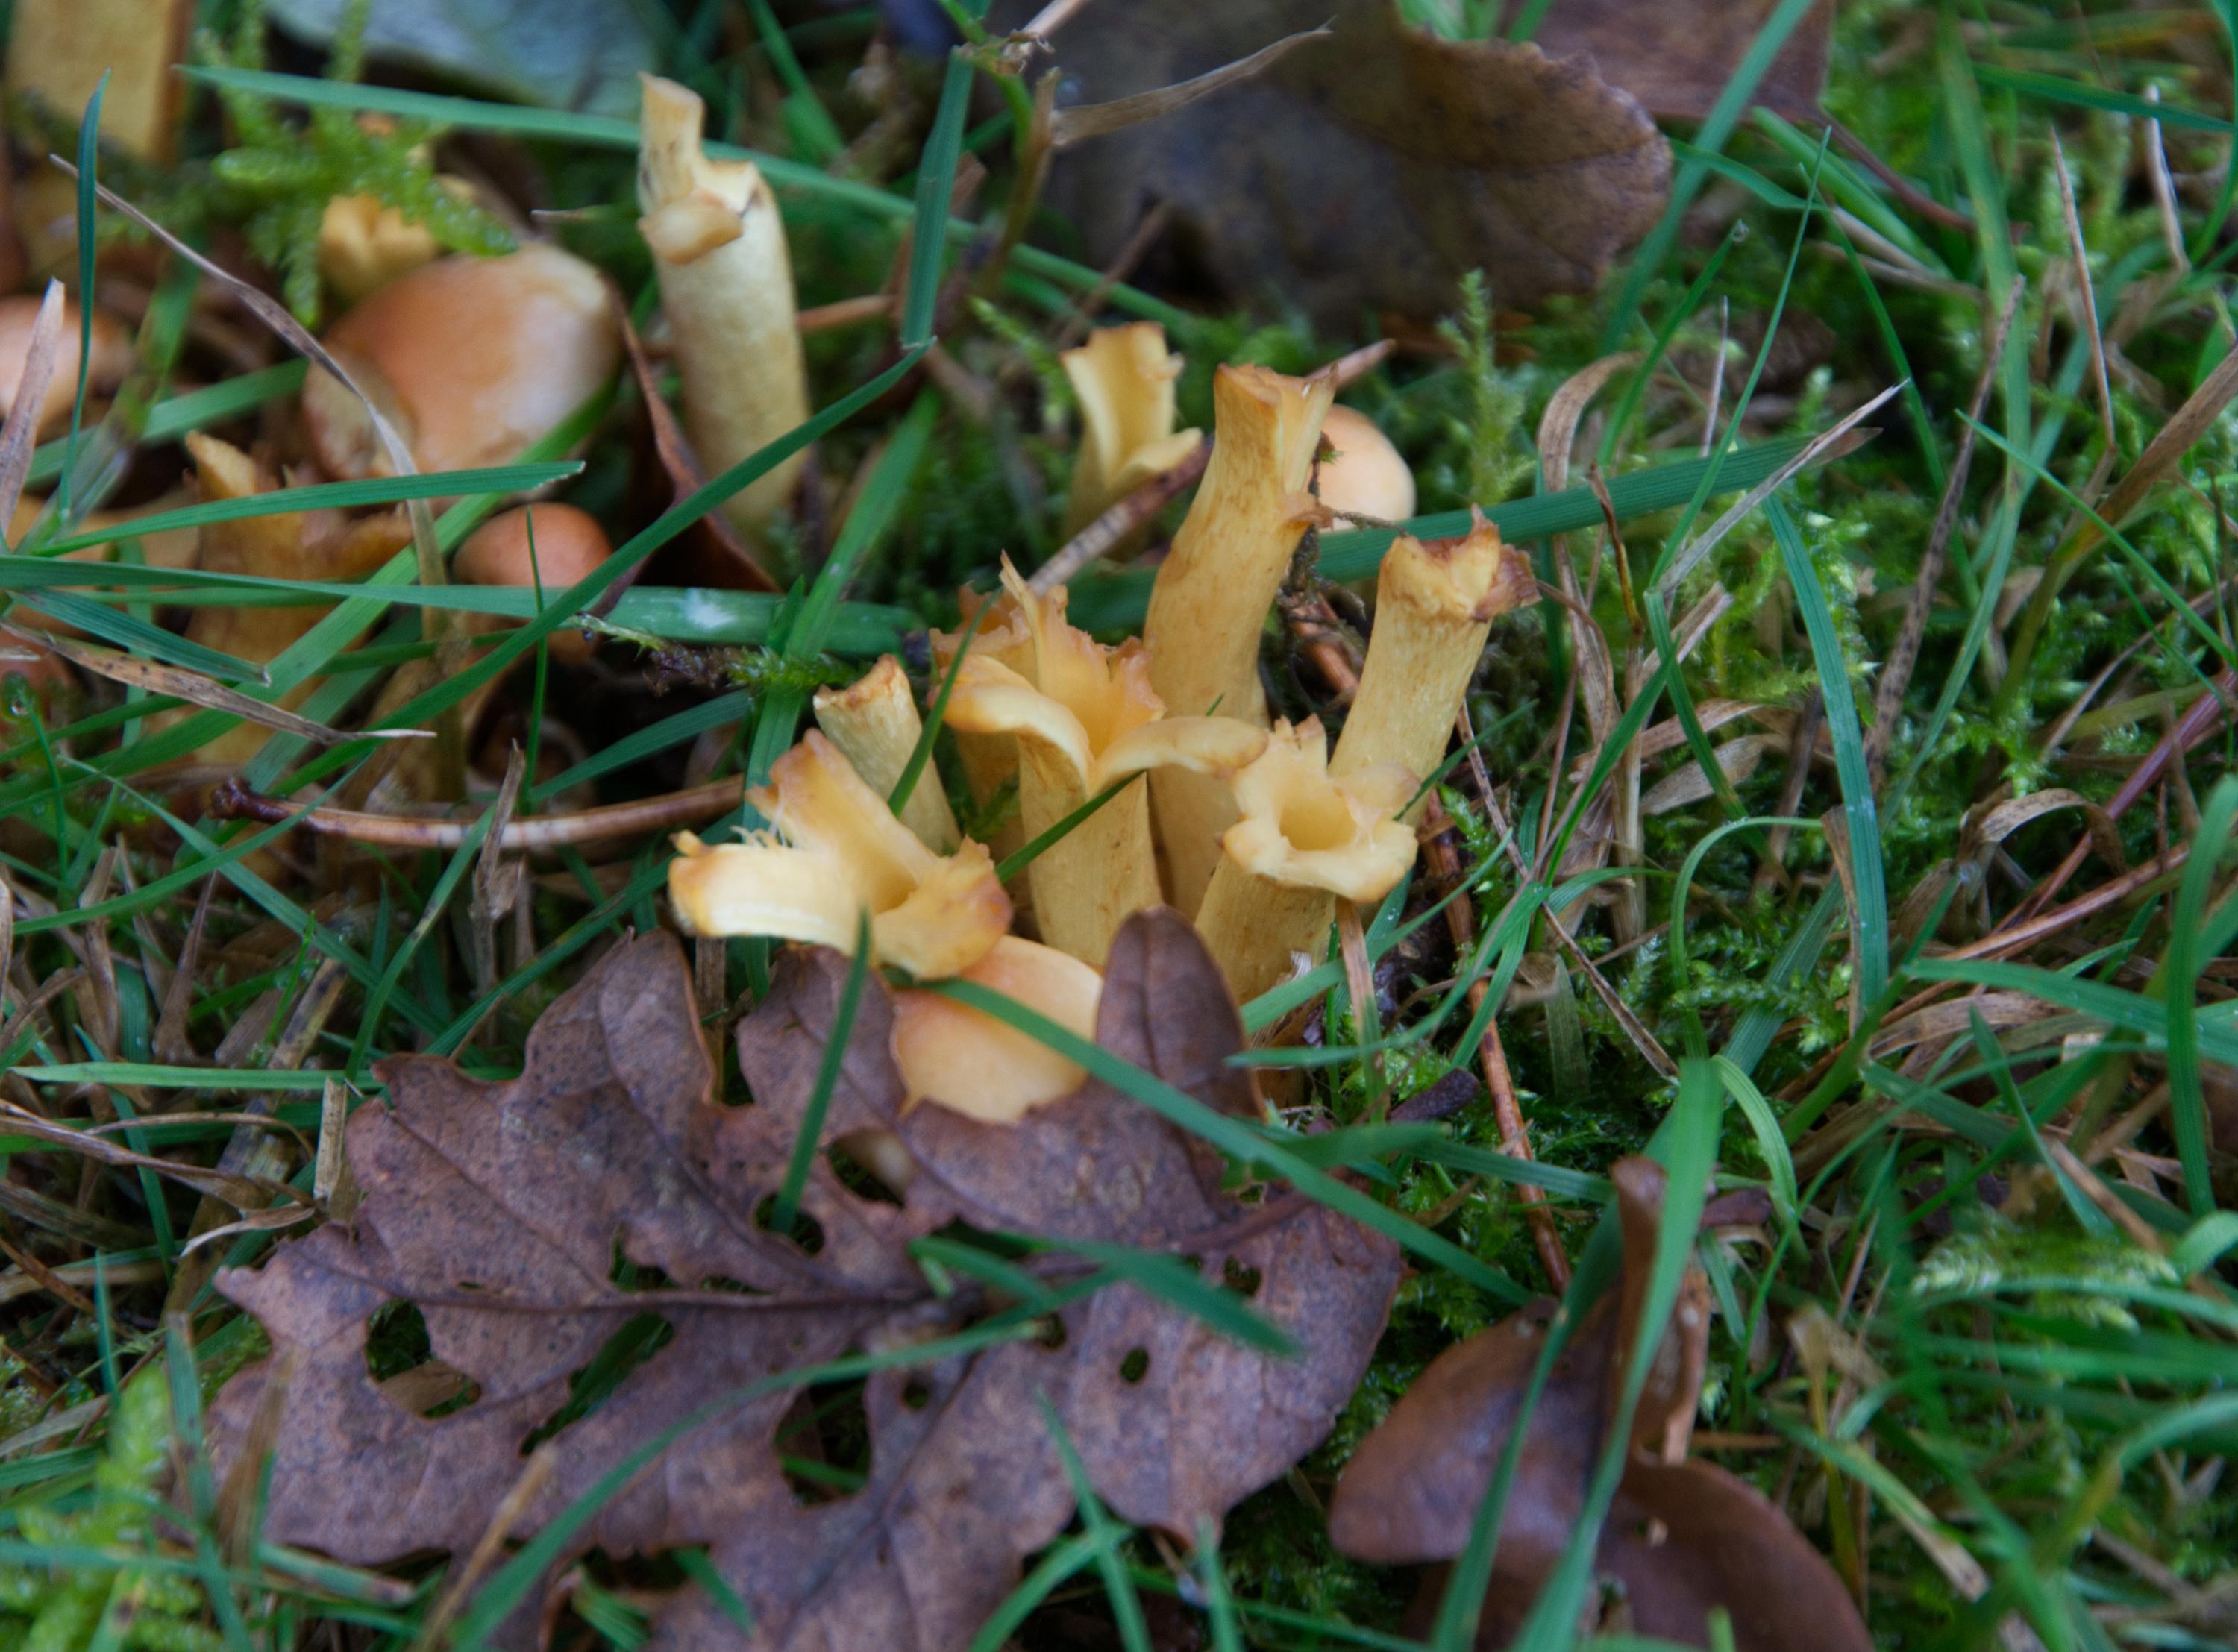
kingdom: Fungi
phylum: Basidiomycota
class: Agaricomycetes
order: Agaricales
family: Strophariaceae
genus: Hypholoma
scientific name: Hypholoma fasciculare
